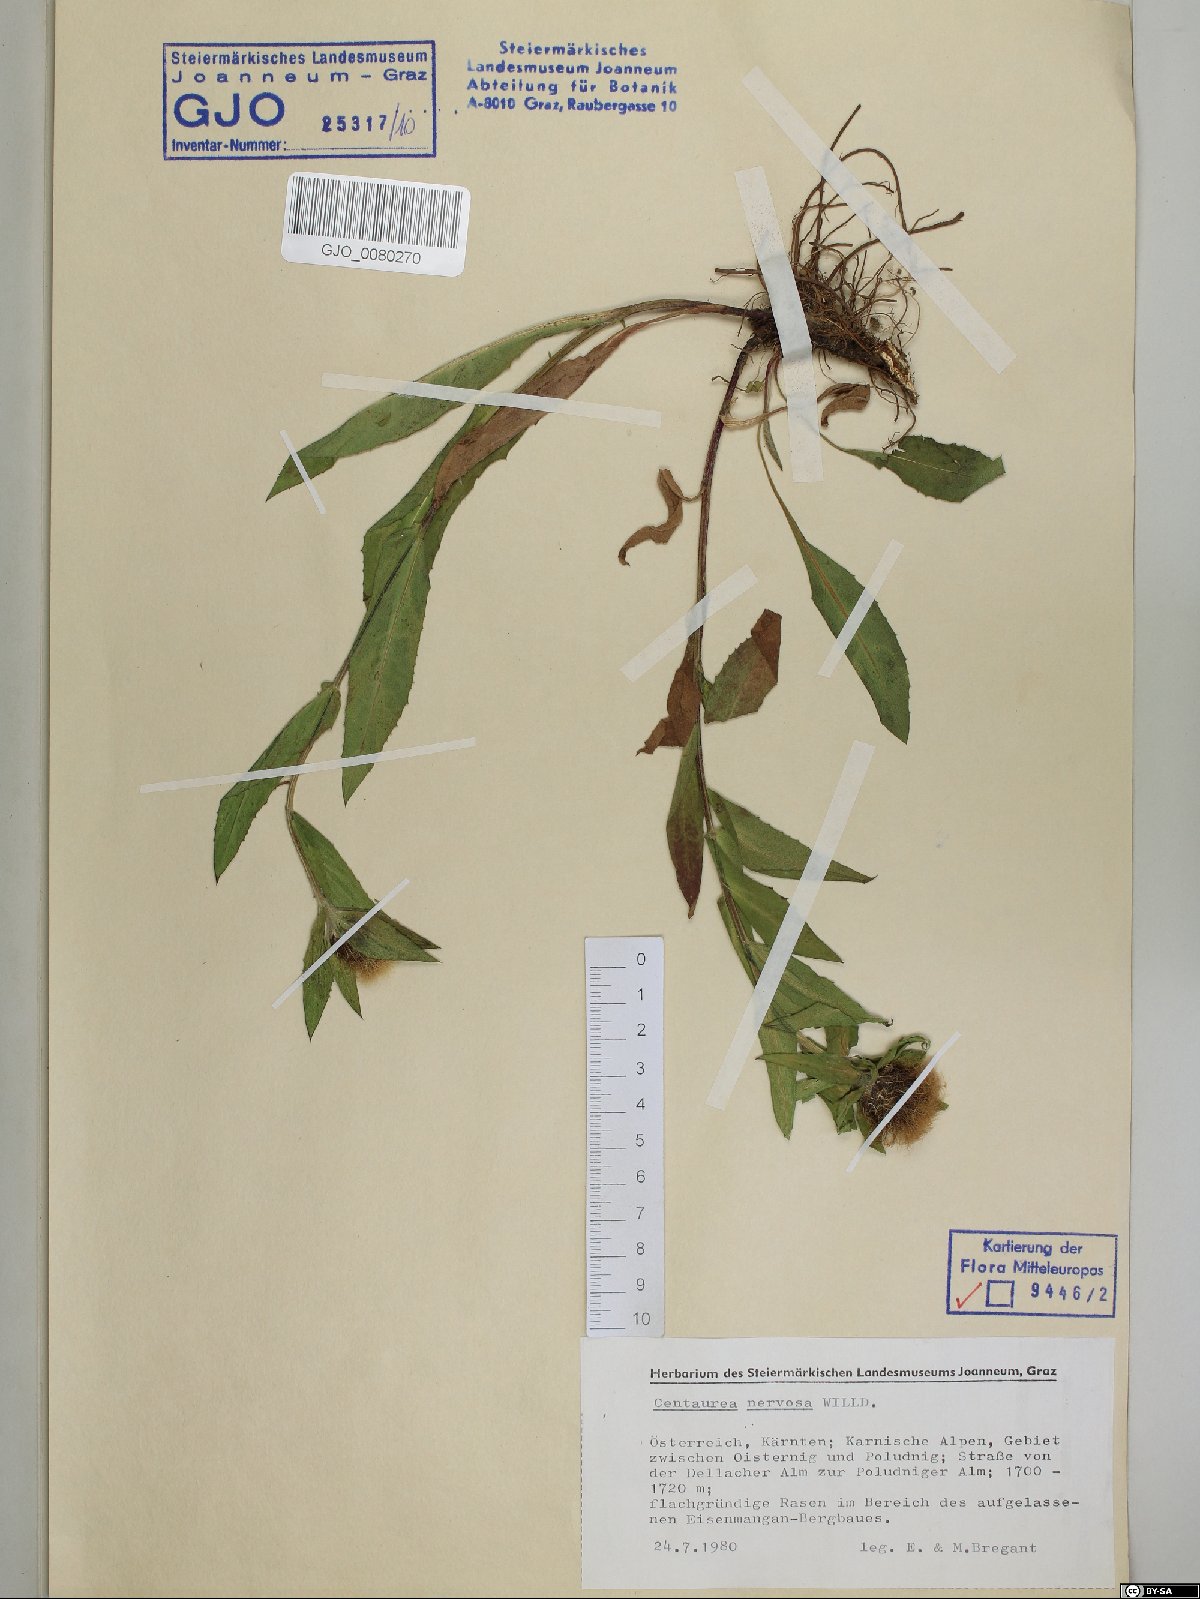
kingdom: Plantae
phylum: Tracheophyta
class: Magnoliopsida
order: Asterales
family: Asteraceae
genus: Centaurea
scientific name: Centaurea nervosa
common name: Singleflower knapweed
